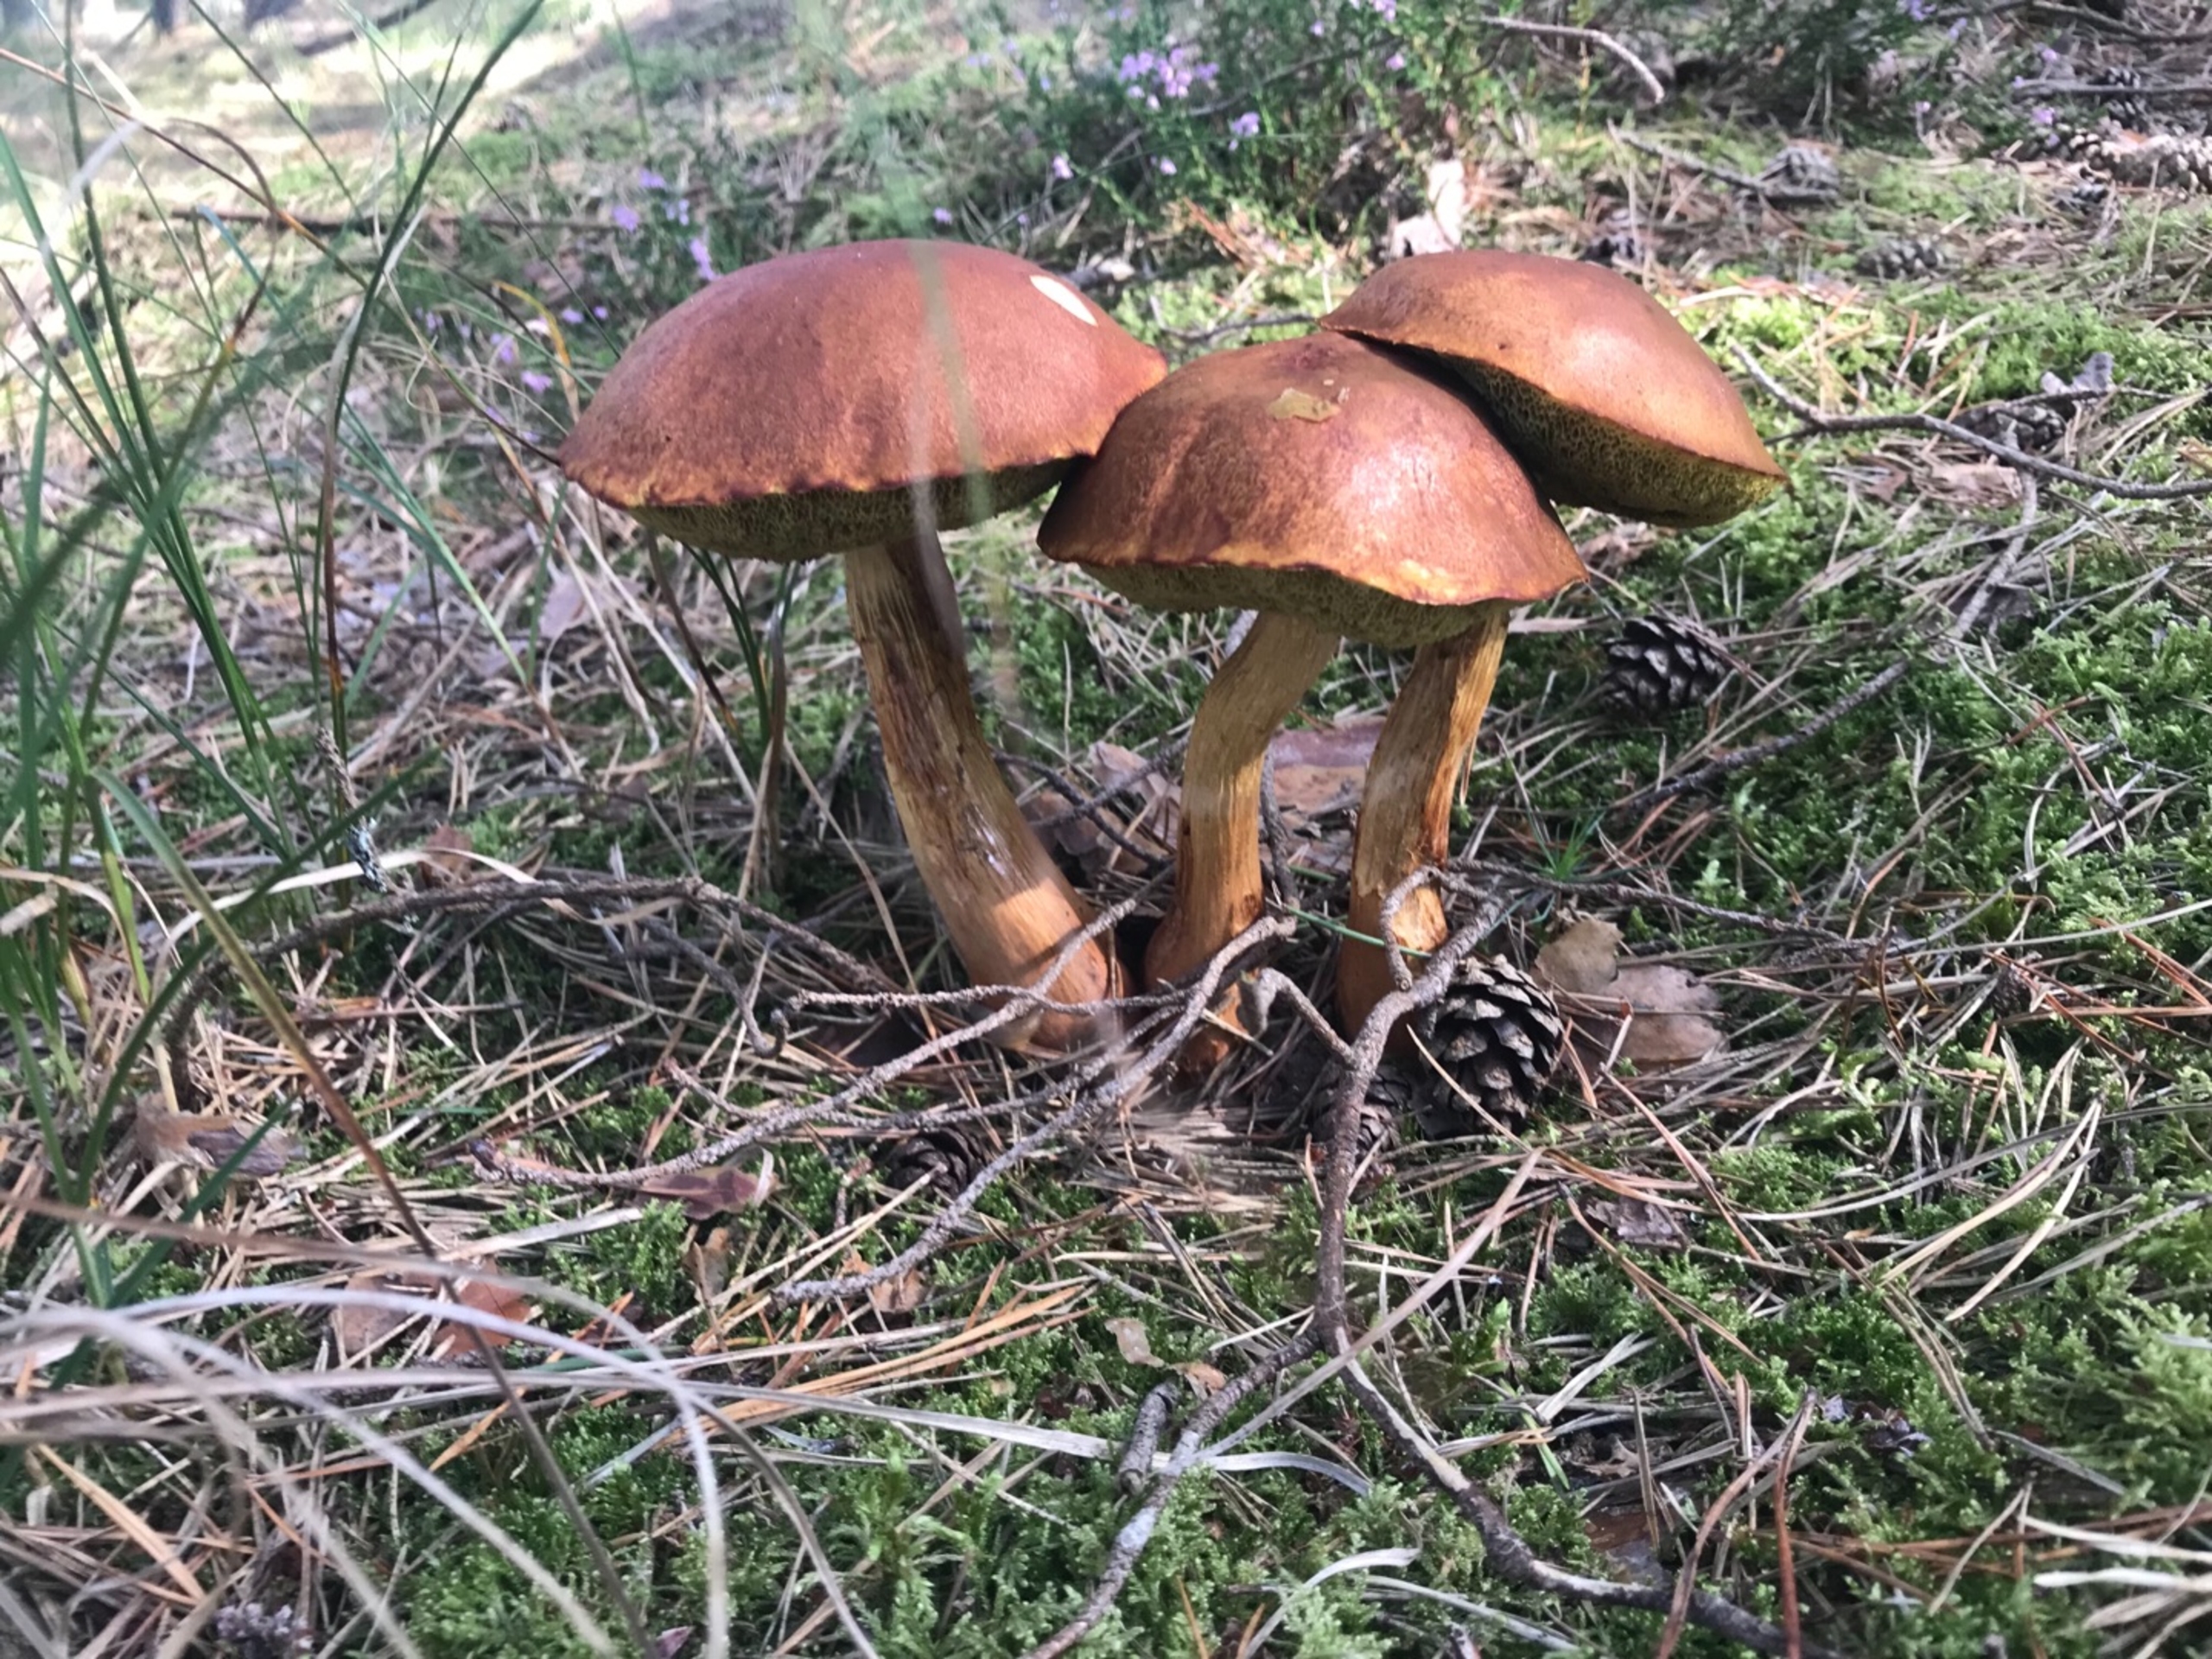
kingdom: Fungi
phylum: Basidiomycota
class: Agaricomycetes
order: Boletales
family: Boletaceae
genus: Aureoboletus
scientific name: Aureoboletus projectellus
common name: Ribbestokket rørhat
